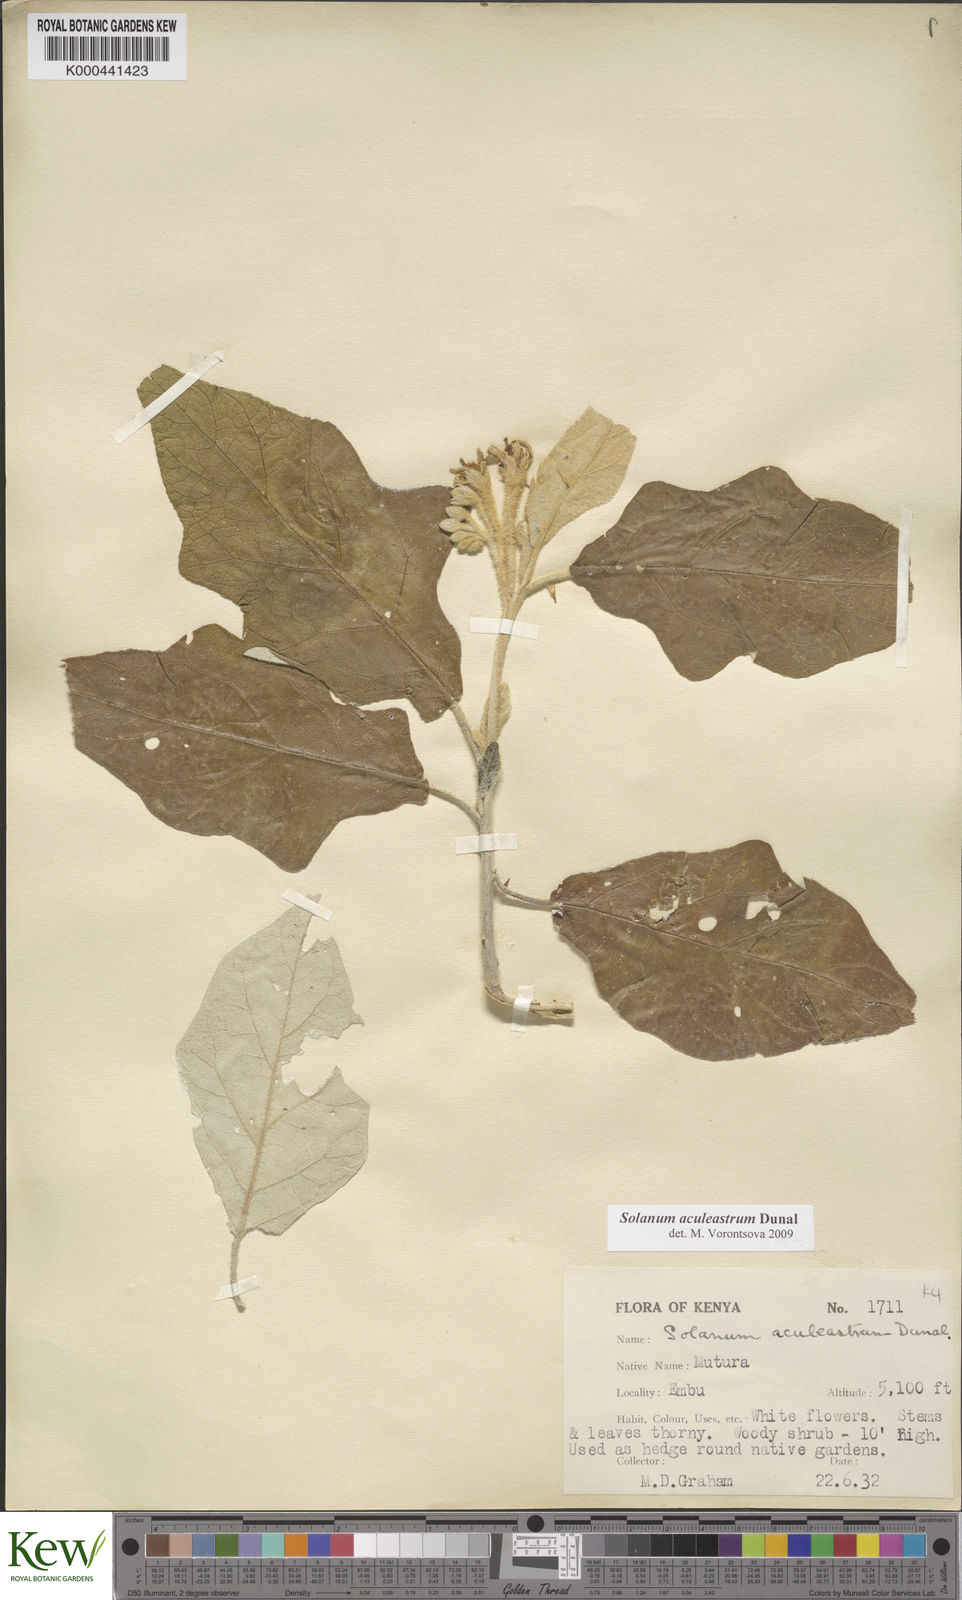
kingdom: Plantae
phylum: Tracheophyta
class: Magnoliopsida
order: Solanales
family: Solanaceae
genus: Solanum
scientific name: Solanum aculeastrum
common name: Goat bitter-apple
